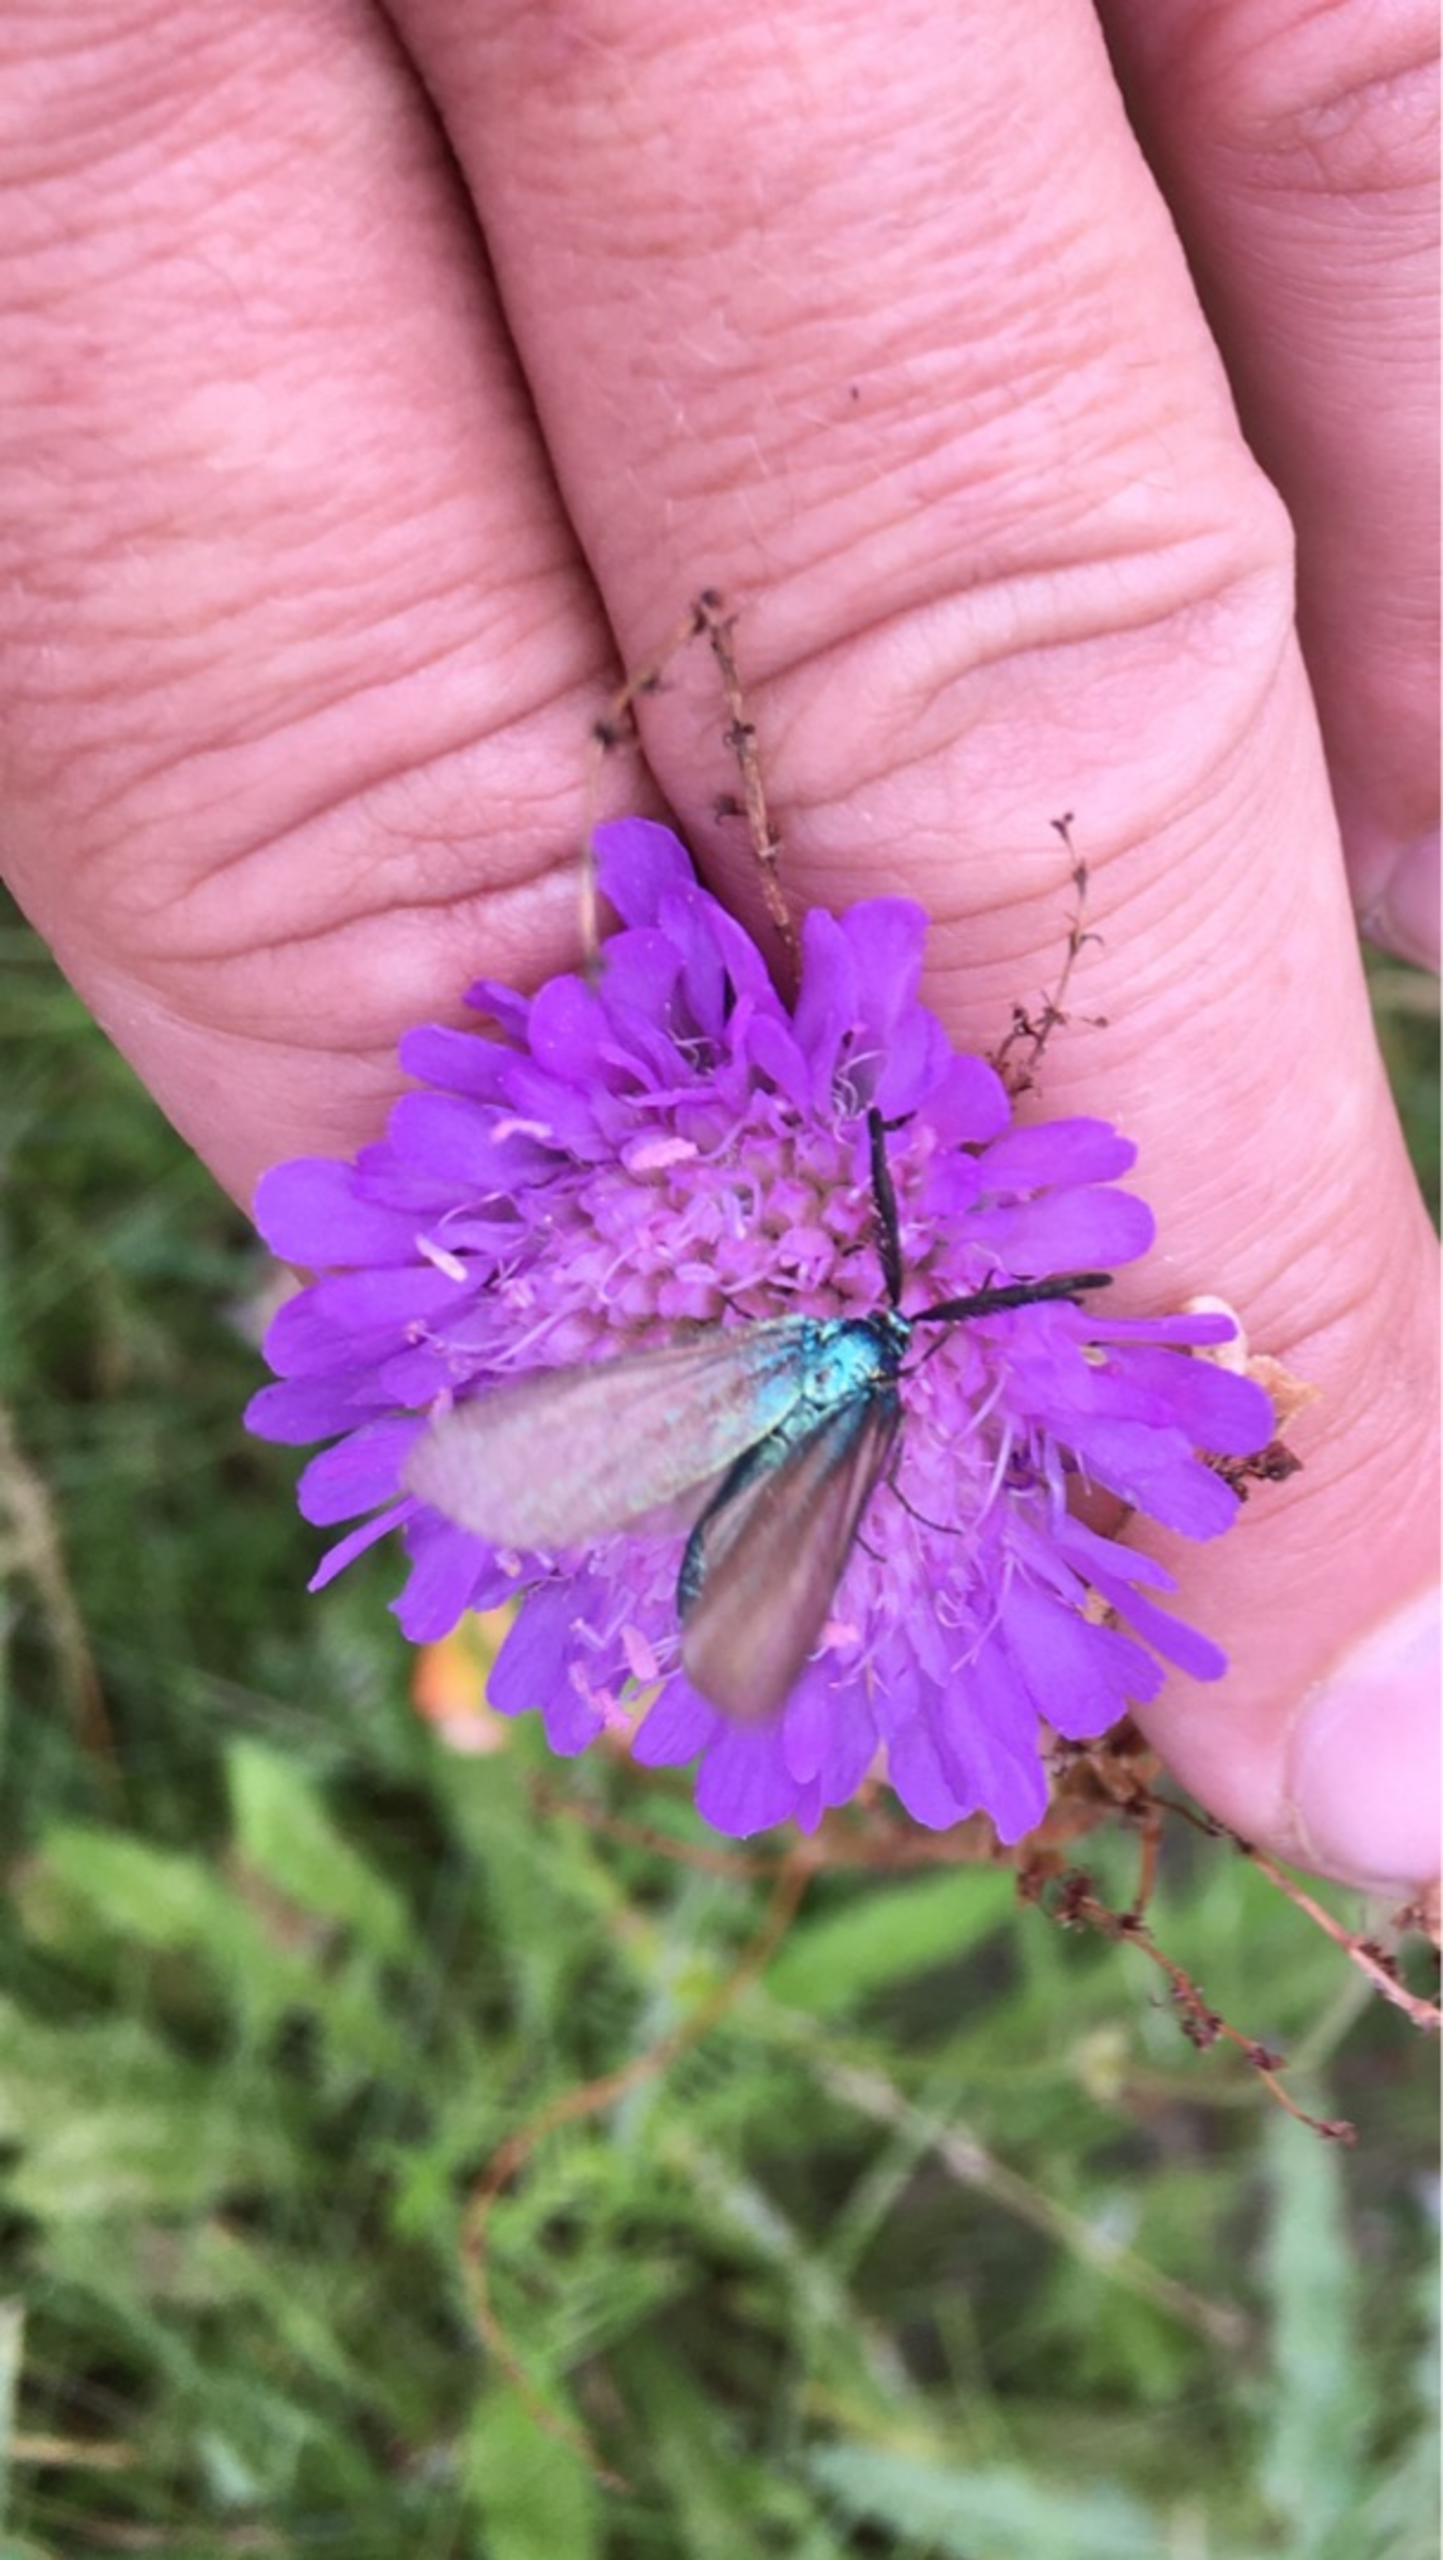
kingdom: Animalia
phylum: Arthropoda
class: Insecta
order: Lepidoptera
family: Zygaenidae
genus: Adscita
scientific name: Adscita statices
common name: Metalvinge
